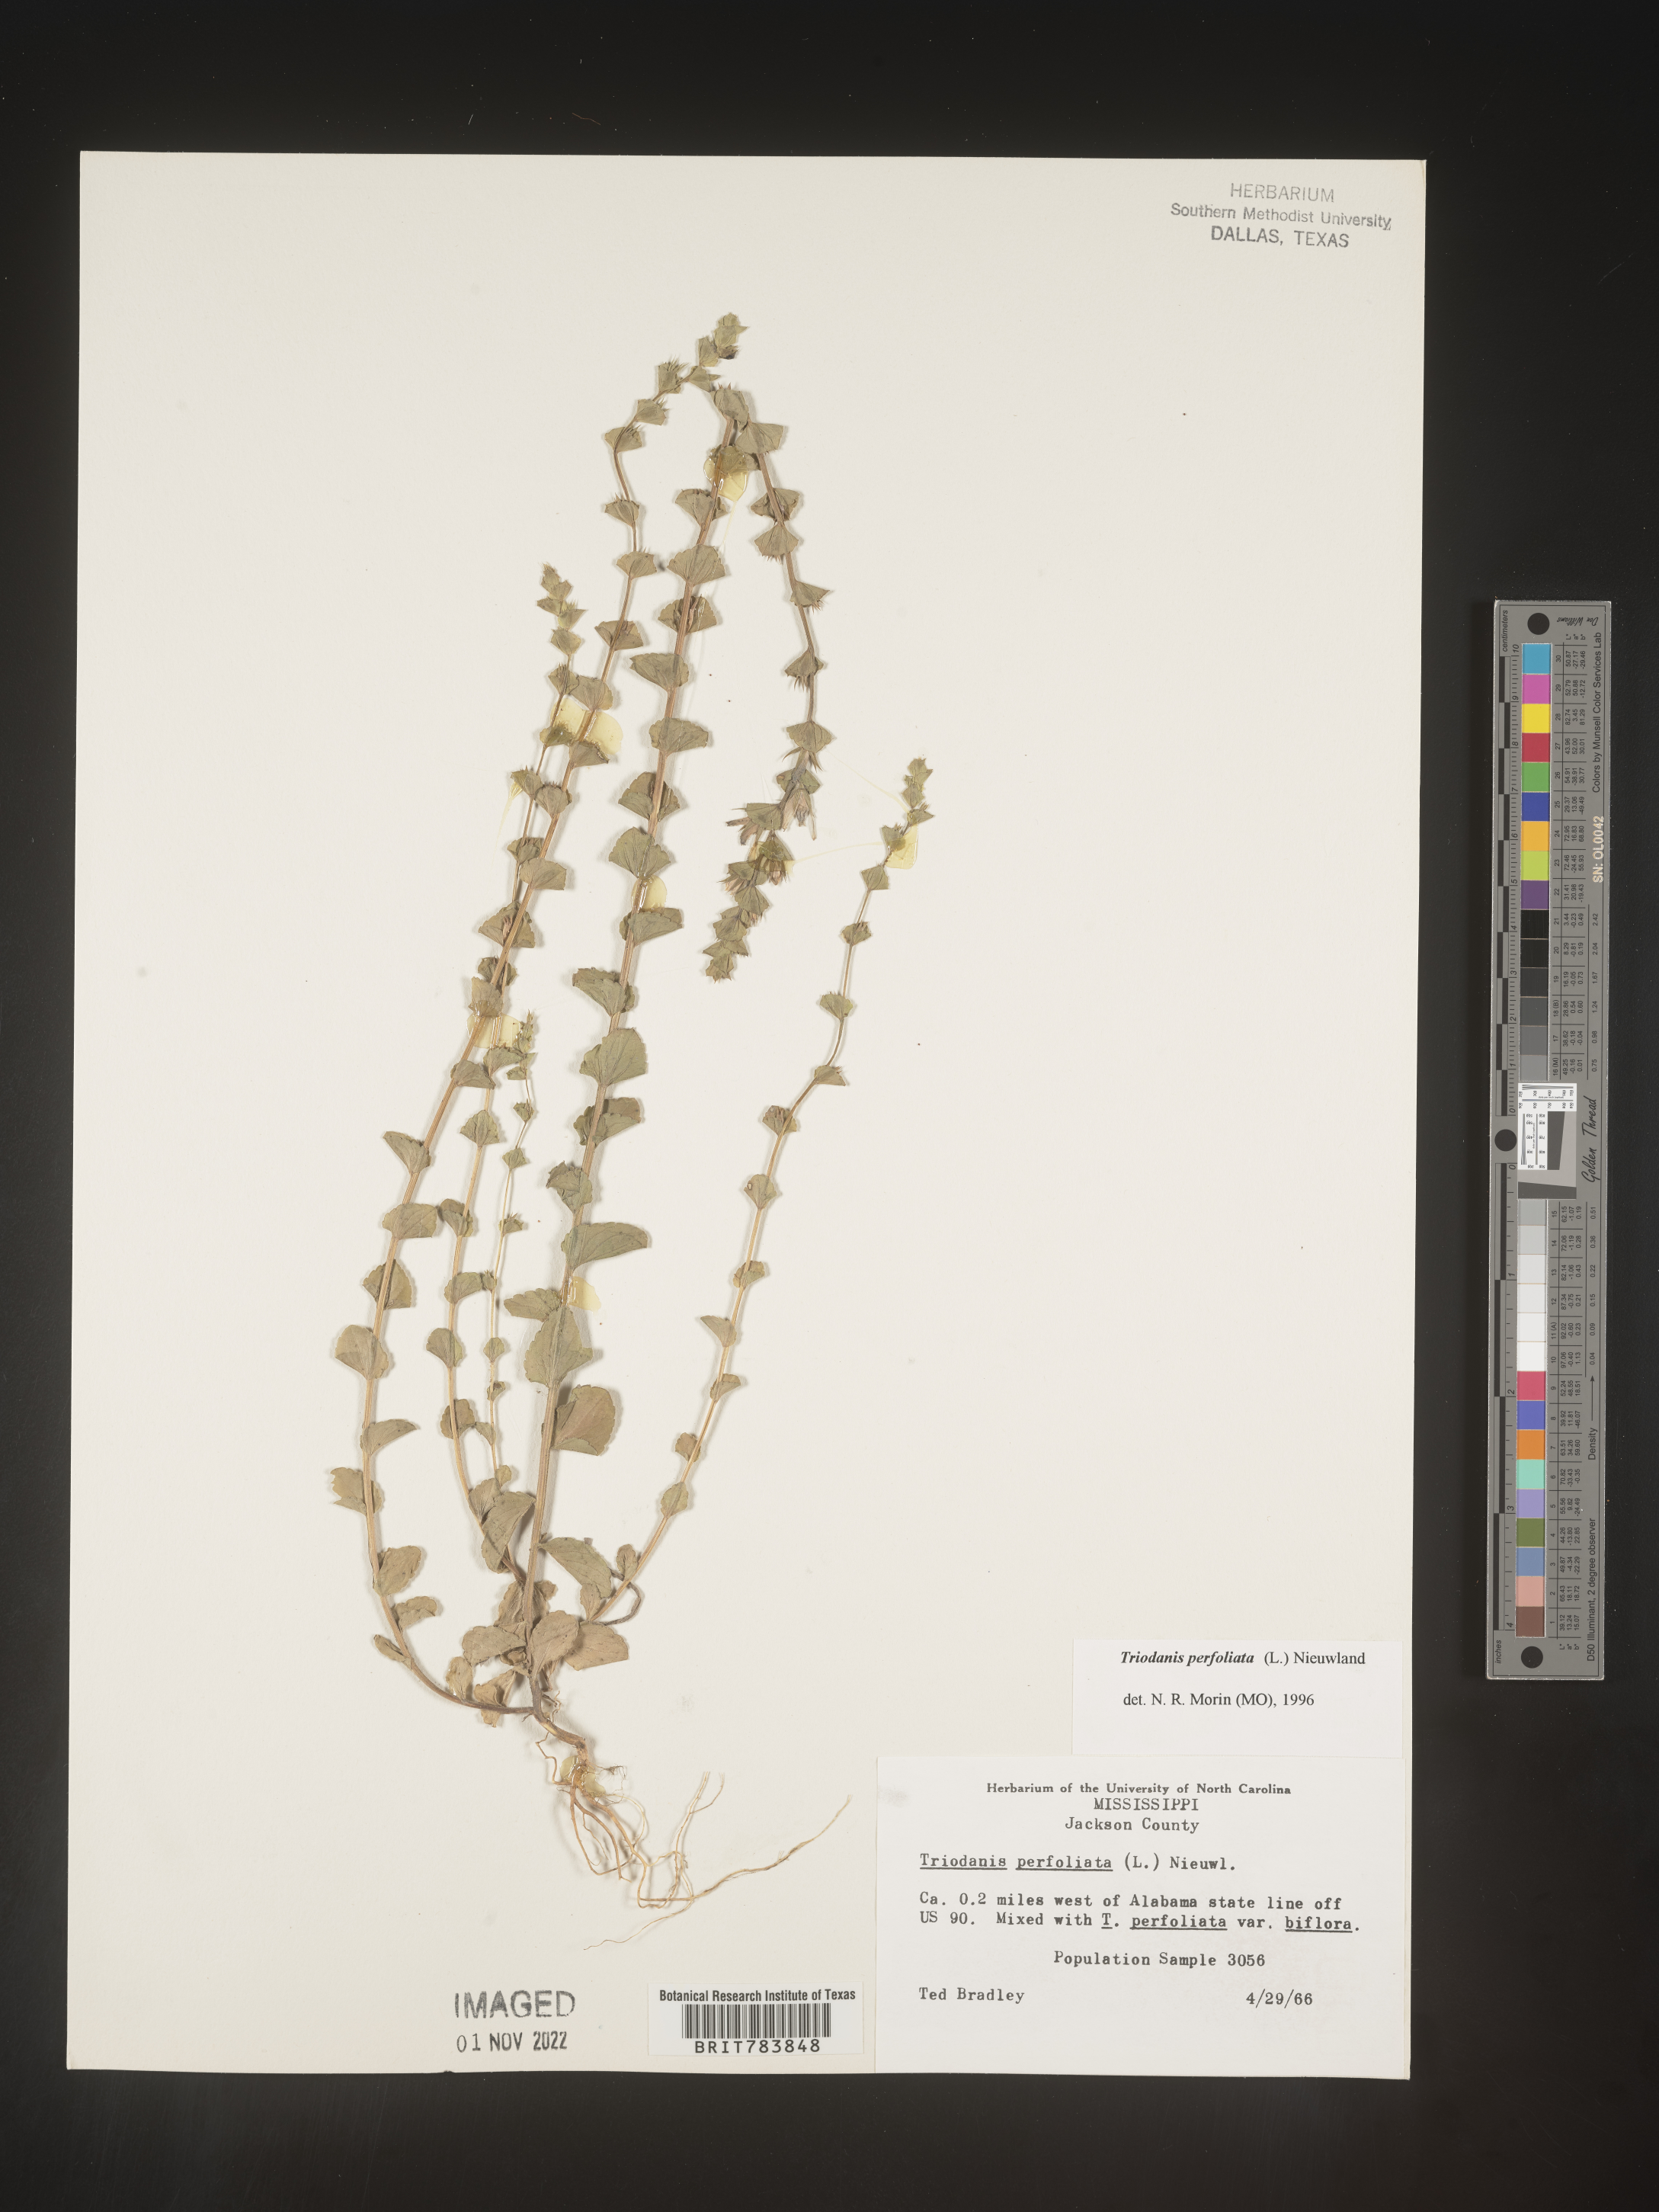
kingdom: Plantae
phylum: Tracheophyta
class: Magnoliopsida
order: Asterales
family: Campanulaceae
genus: Triodanis
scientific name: Triodanis perfoliata
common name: Clasping venus' looking-glass
